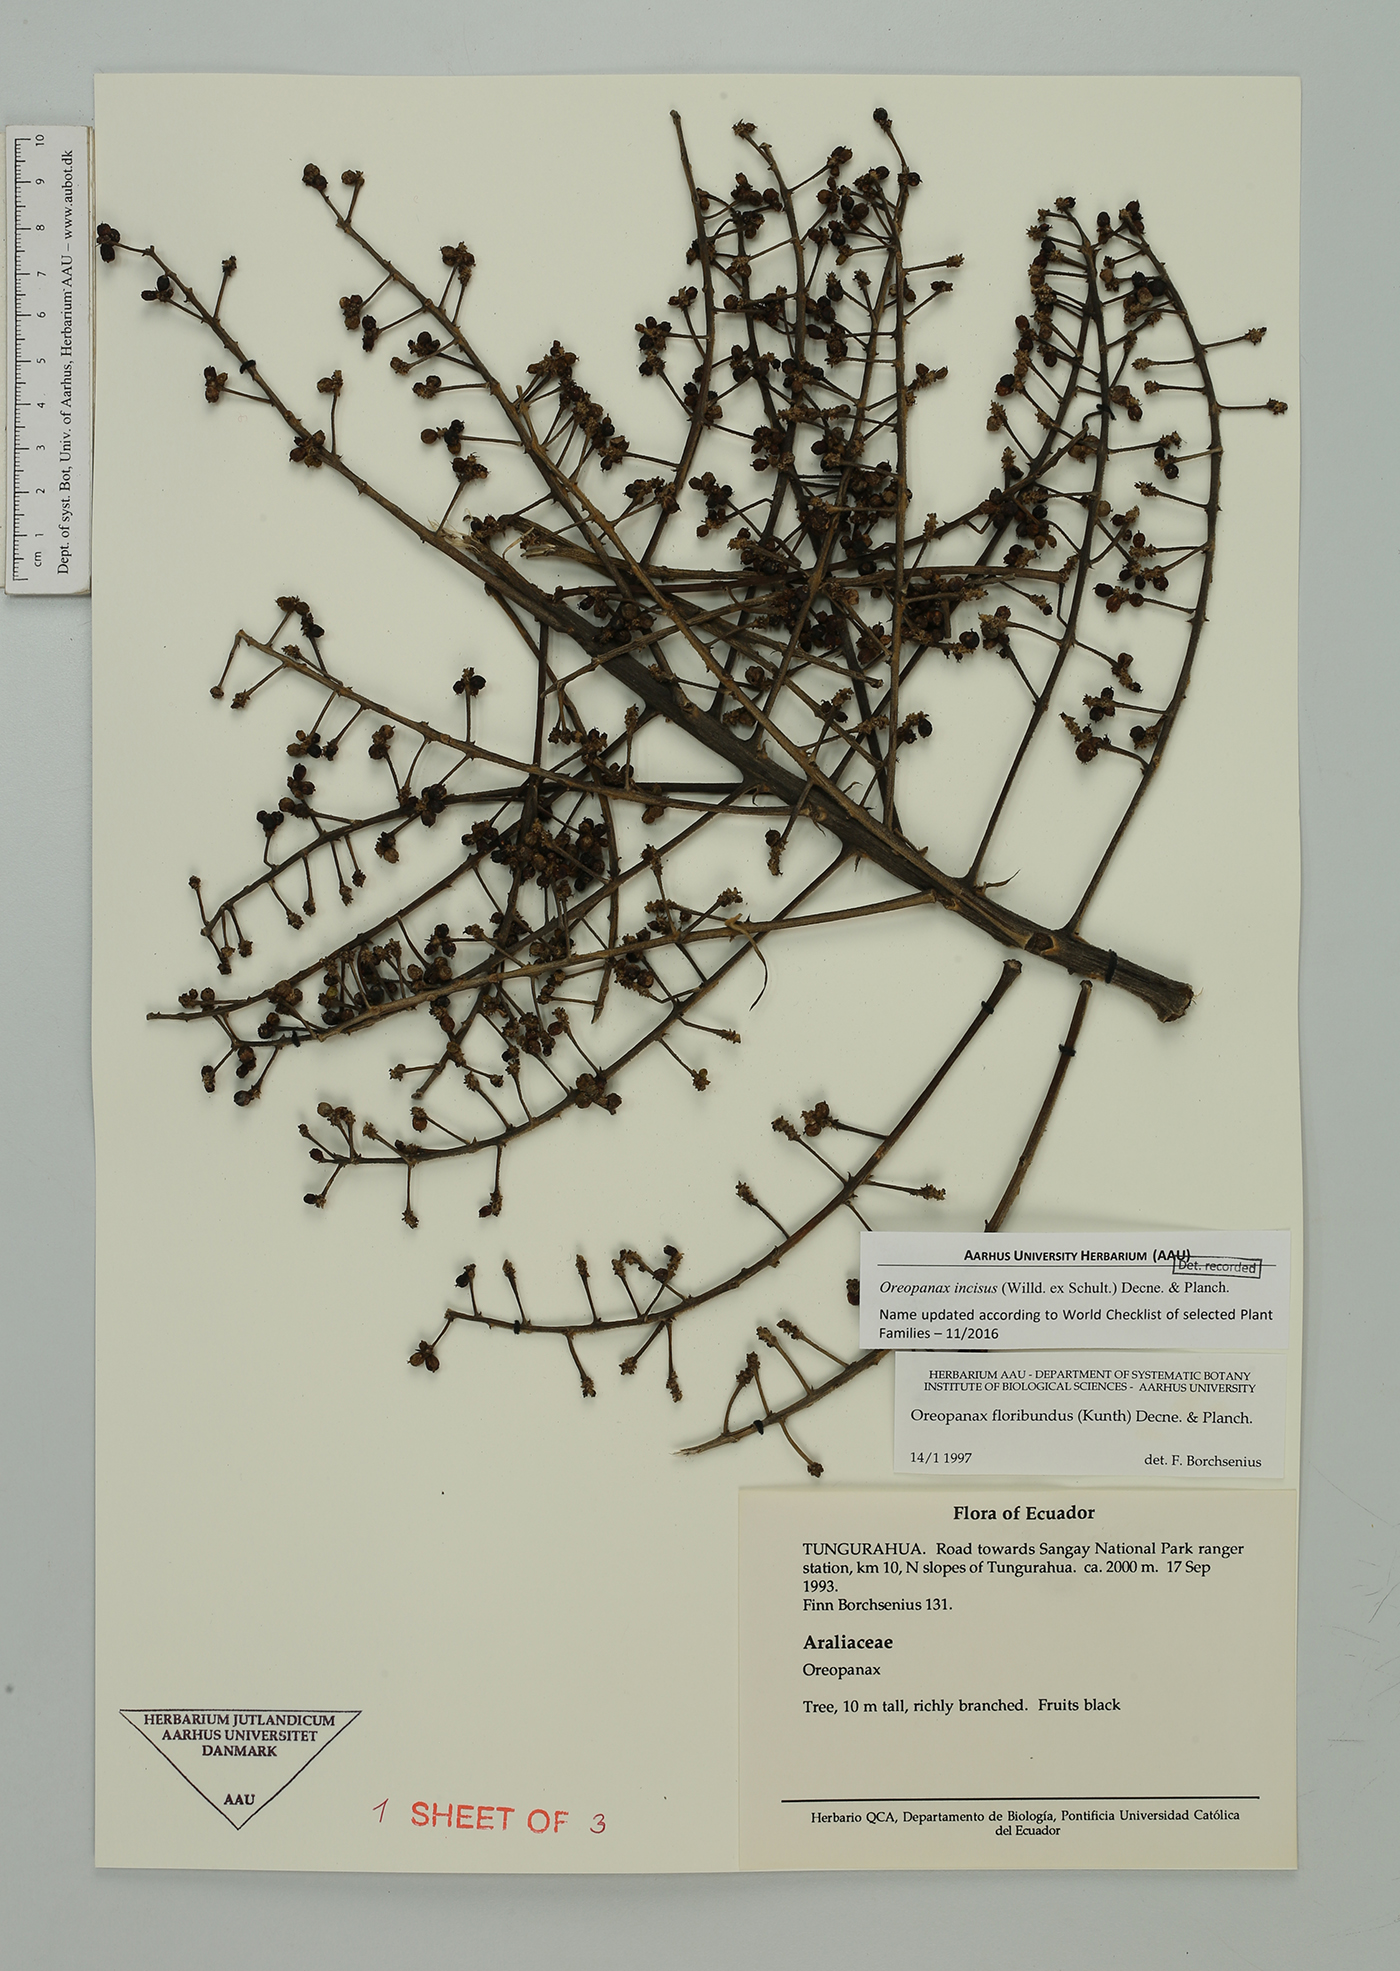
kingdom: Plantae
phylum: Tracheophyta
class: Magnoliopsida
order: Apiales
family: Araliaceae
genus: Oreopanax
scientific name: Oreopanax incisus
